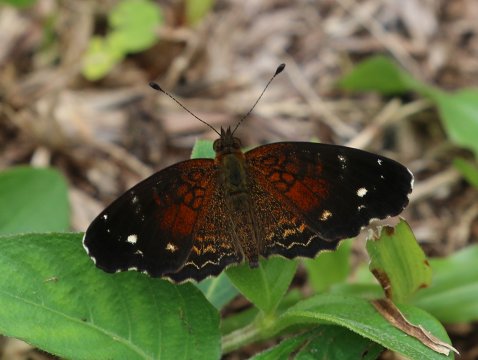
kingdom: Animalia
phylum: Arthropoda
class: Insecta
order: Lepidoptera
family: Nymphalidae
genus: Anthanassa
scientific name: Anthanassa argentea
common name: Chestnut Crescent
